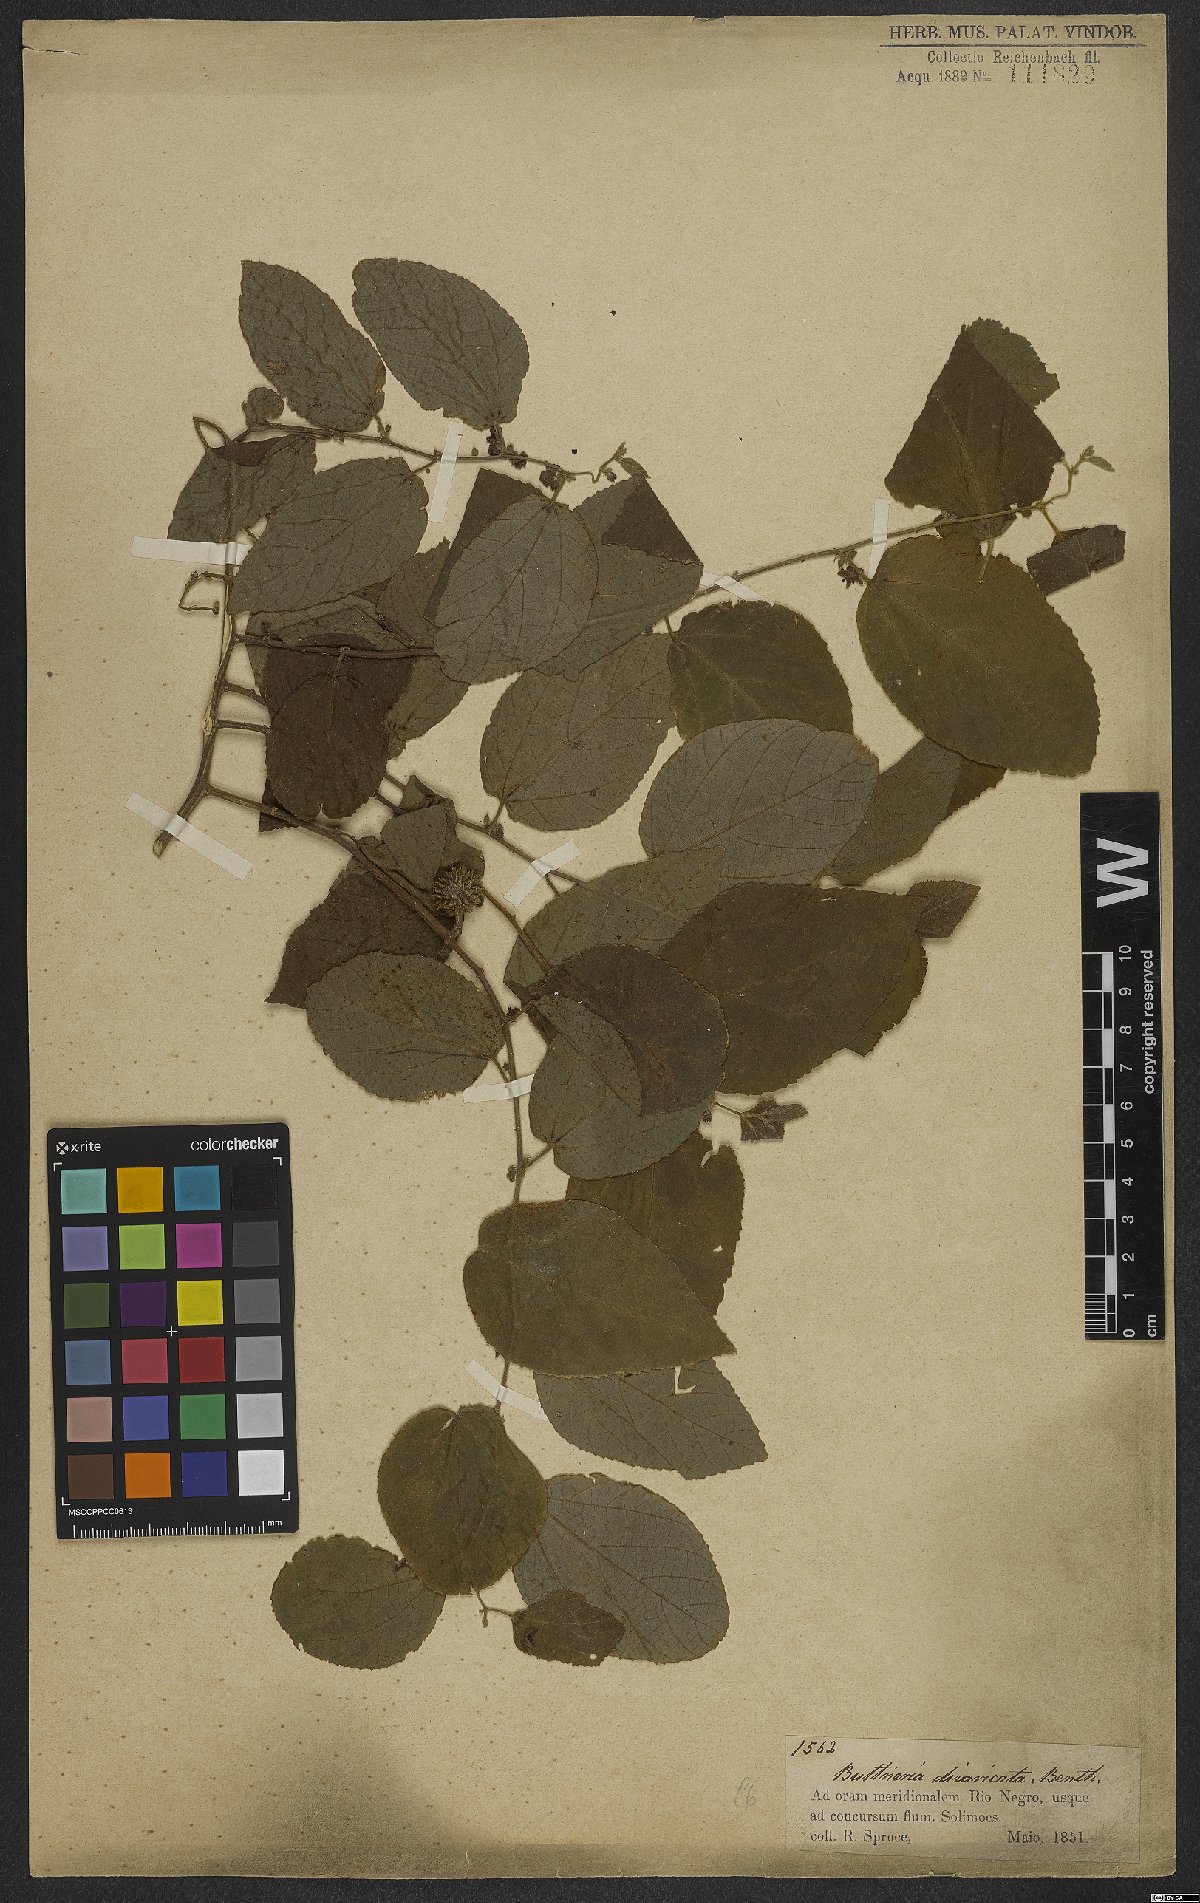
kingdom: Plantae
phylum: Tracheophyta
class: Magnoliopsida
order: Malvales
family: Malvaceae
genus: Byttneria
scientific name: Byttneria divaricata
